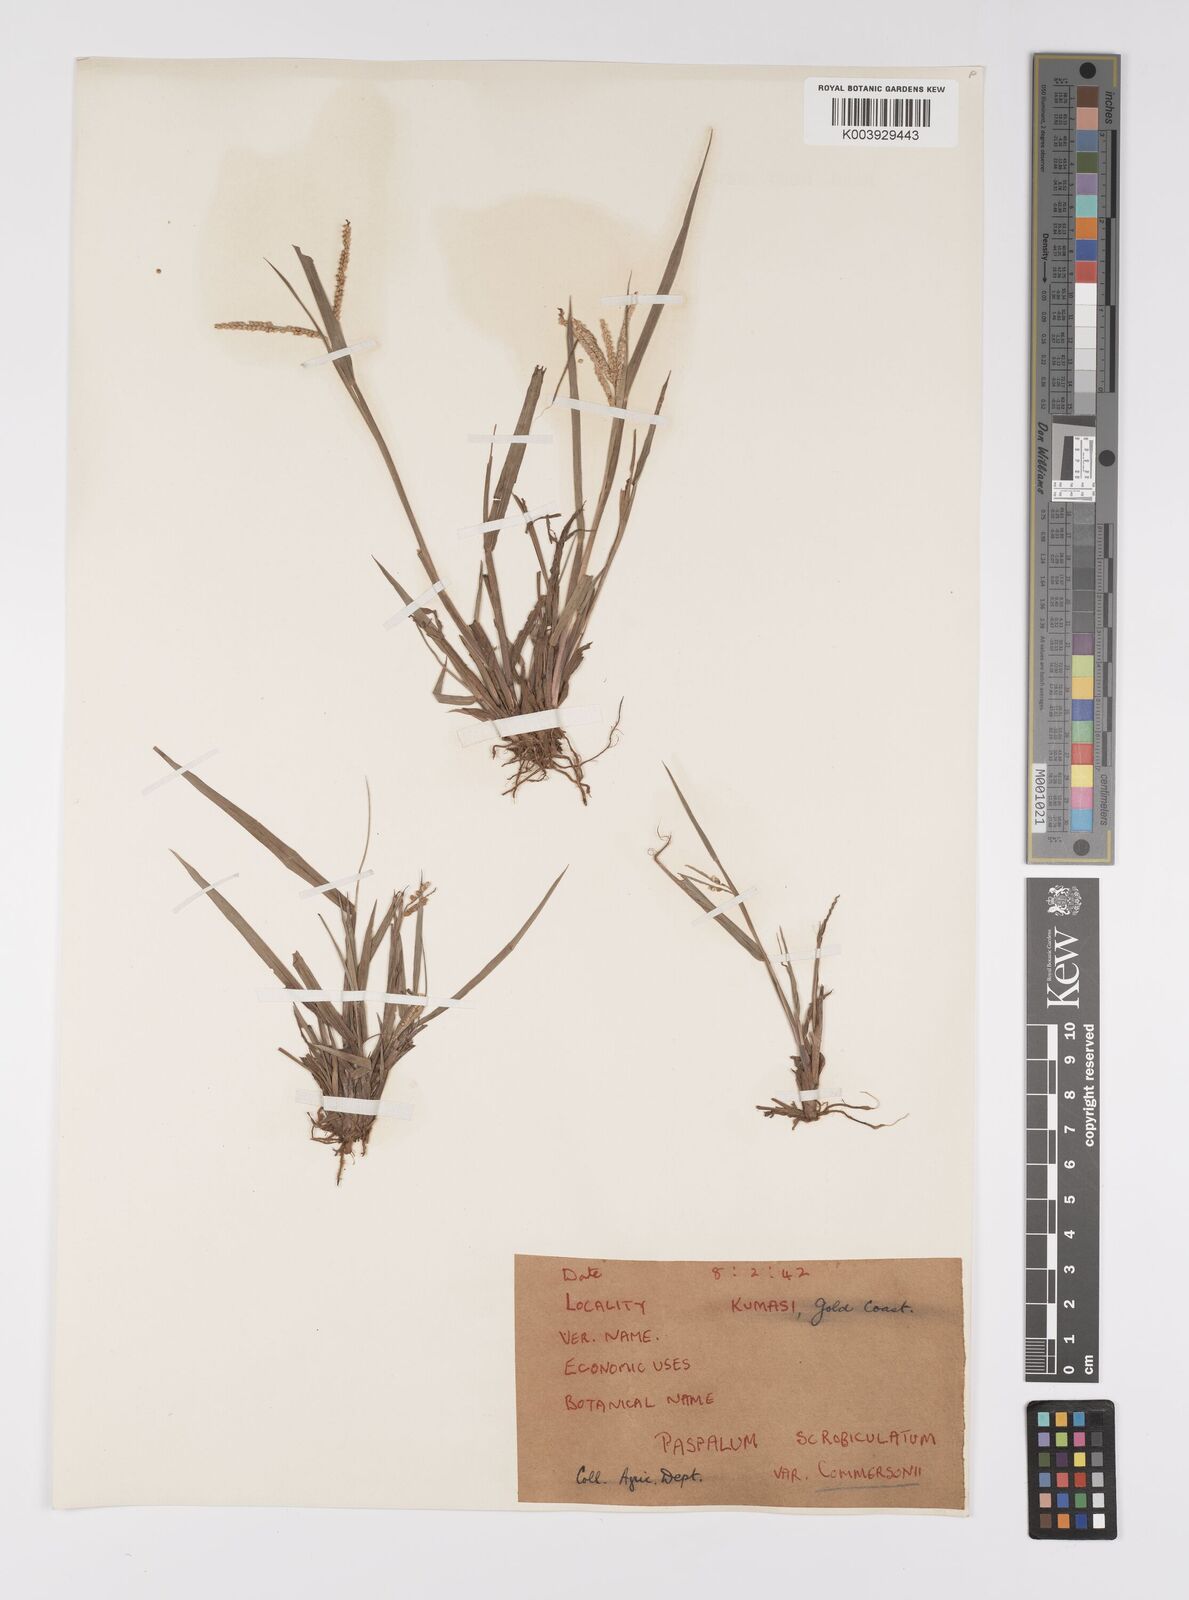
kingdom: Plantae
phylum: Tracheophyta
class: Liliopsida
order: Poales
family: Poaceae
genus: Paspalum
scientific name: Paspalum scrobiculatum
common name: Kodo millet
